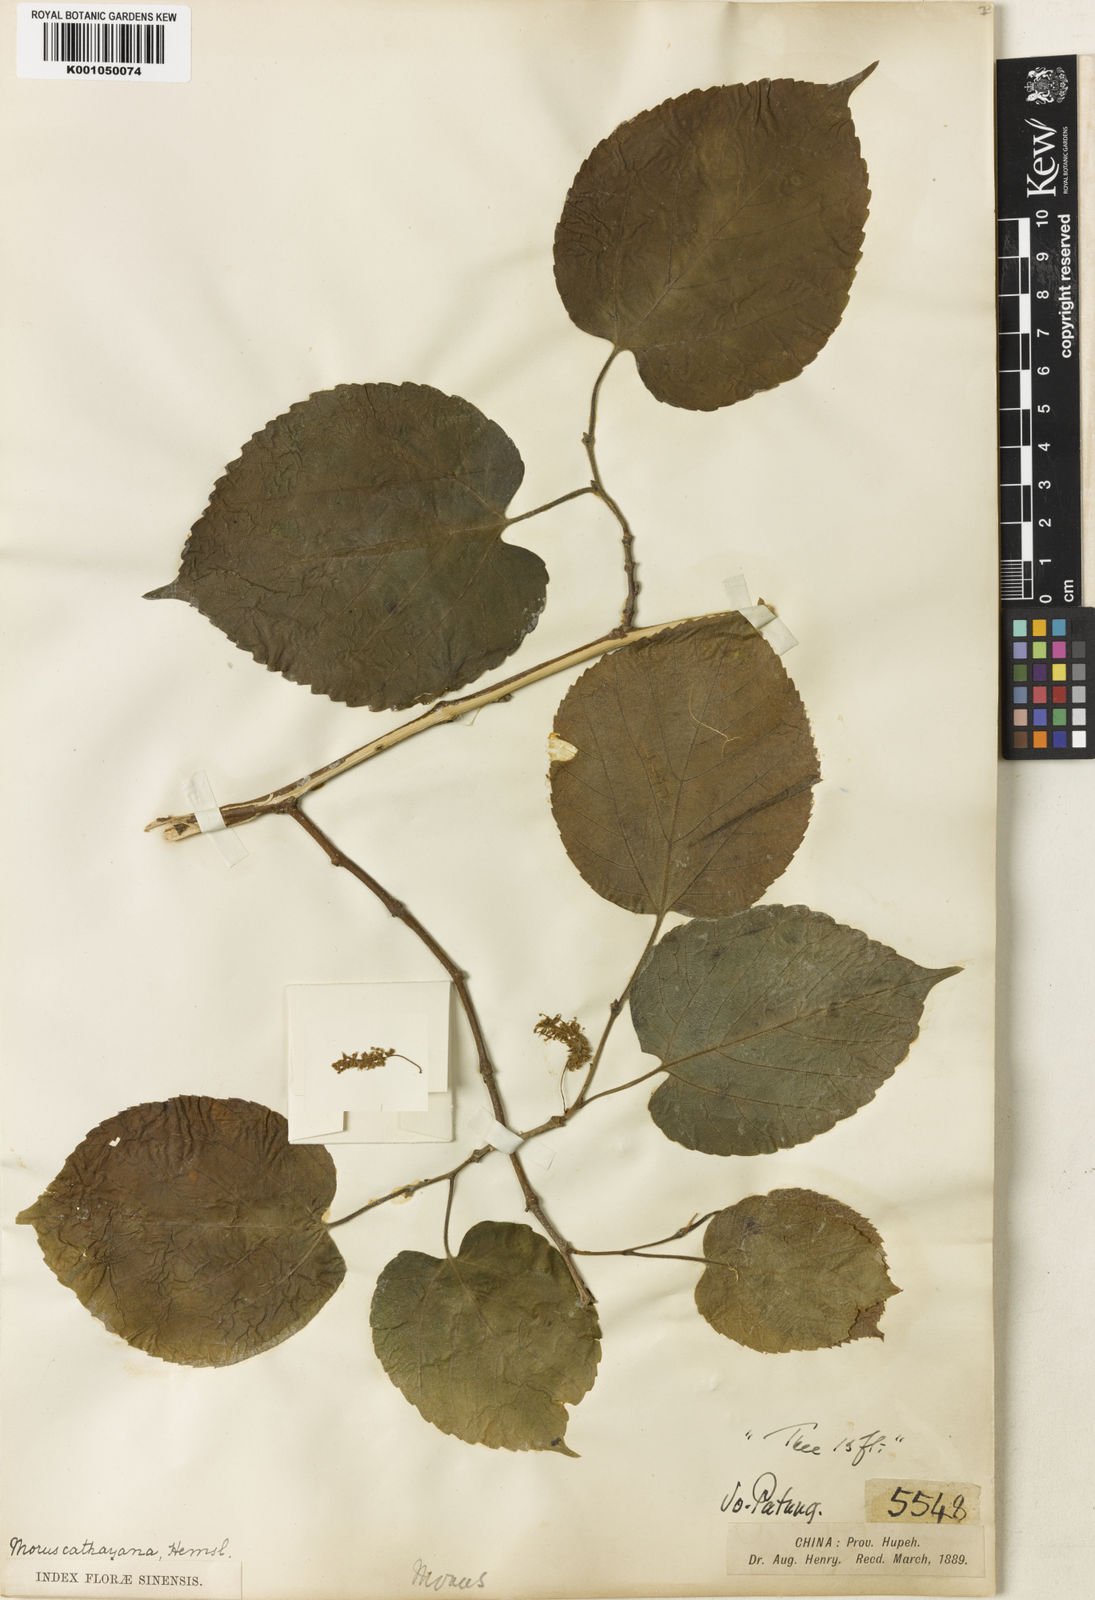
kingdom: Plantae
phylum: Tracheophyta
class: Magnoliopsida
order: Rosales
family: Moraceae
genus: Morus
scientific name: Morus cathayana
